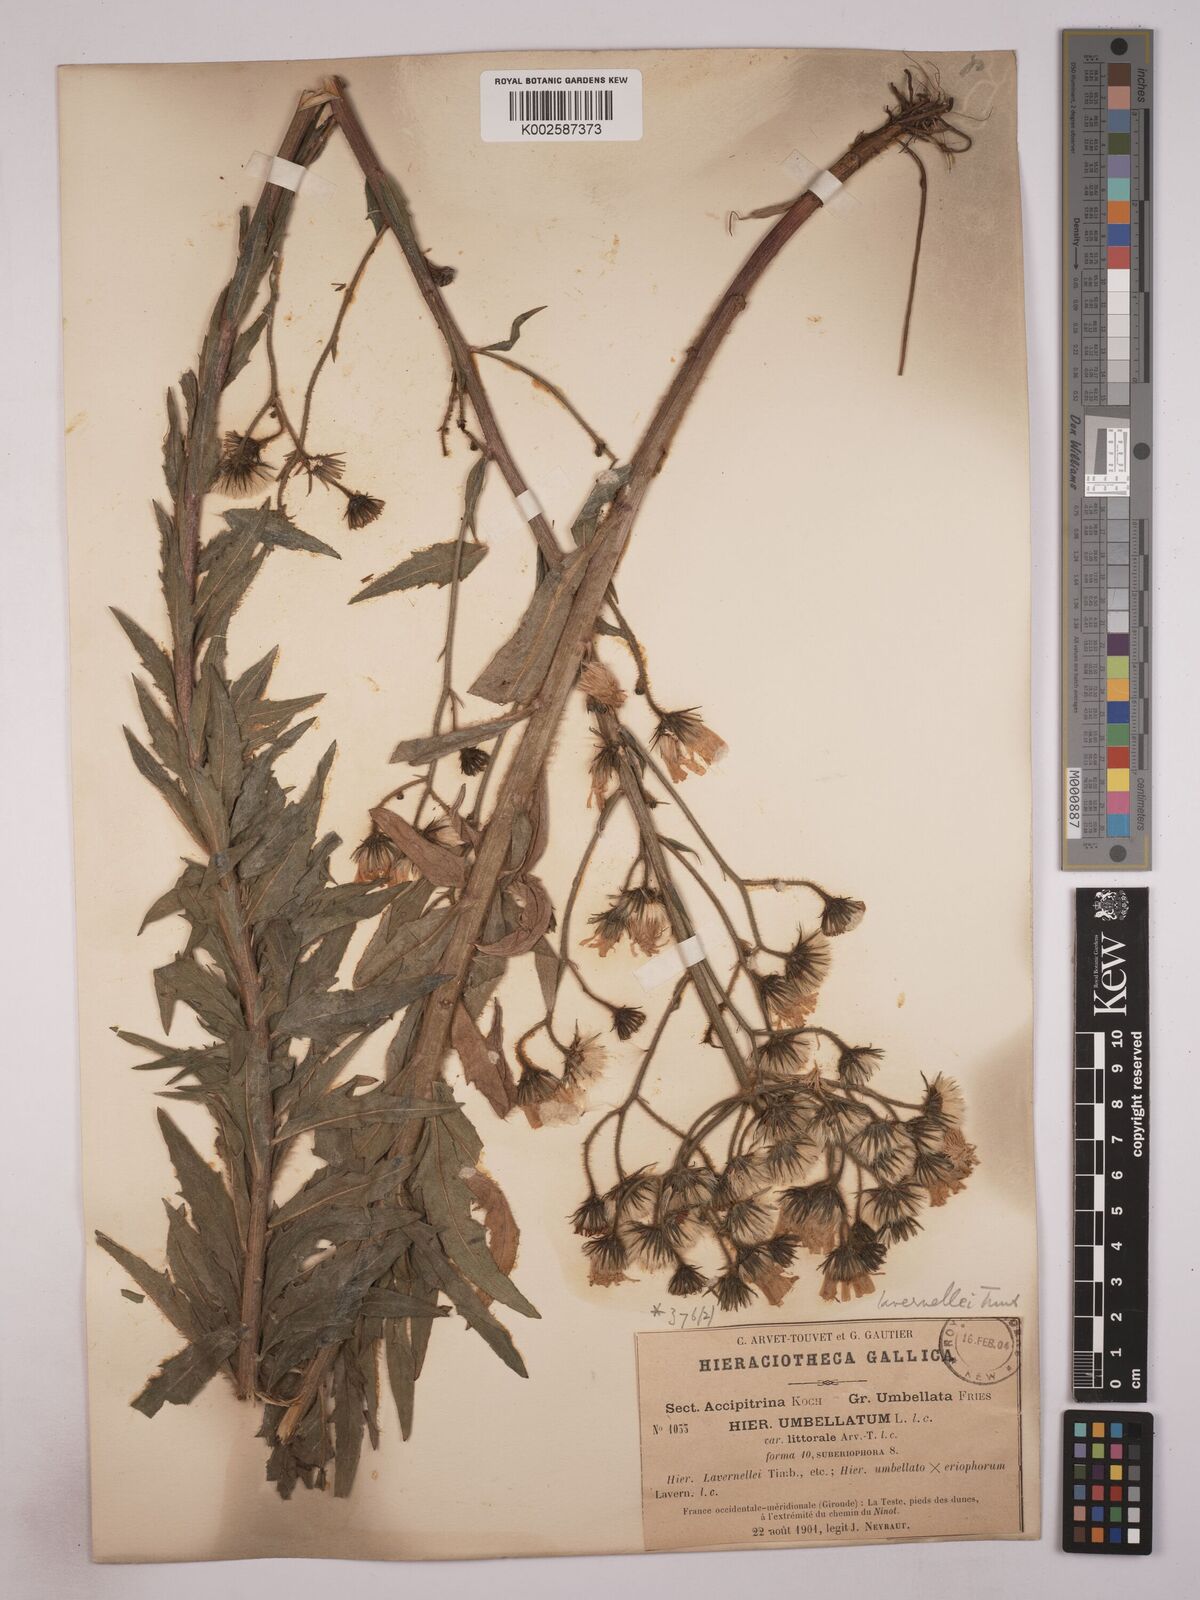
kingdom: Plantae
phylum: Tracheophyta
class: Magnoliopsida
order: Asterales
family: Asteraceae
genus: Hieracium
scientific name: Hieracium
